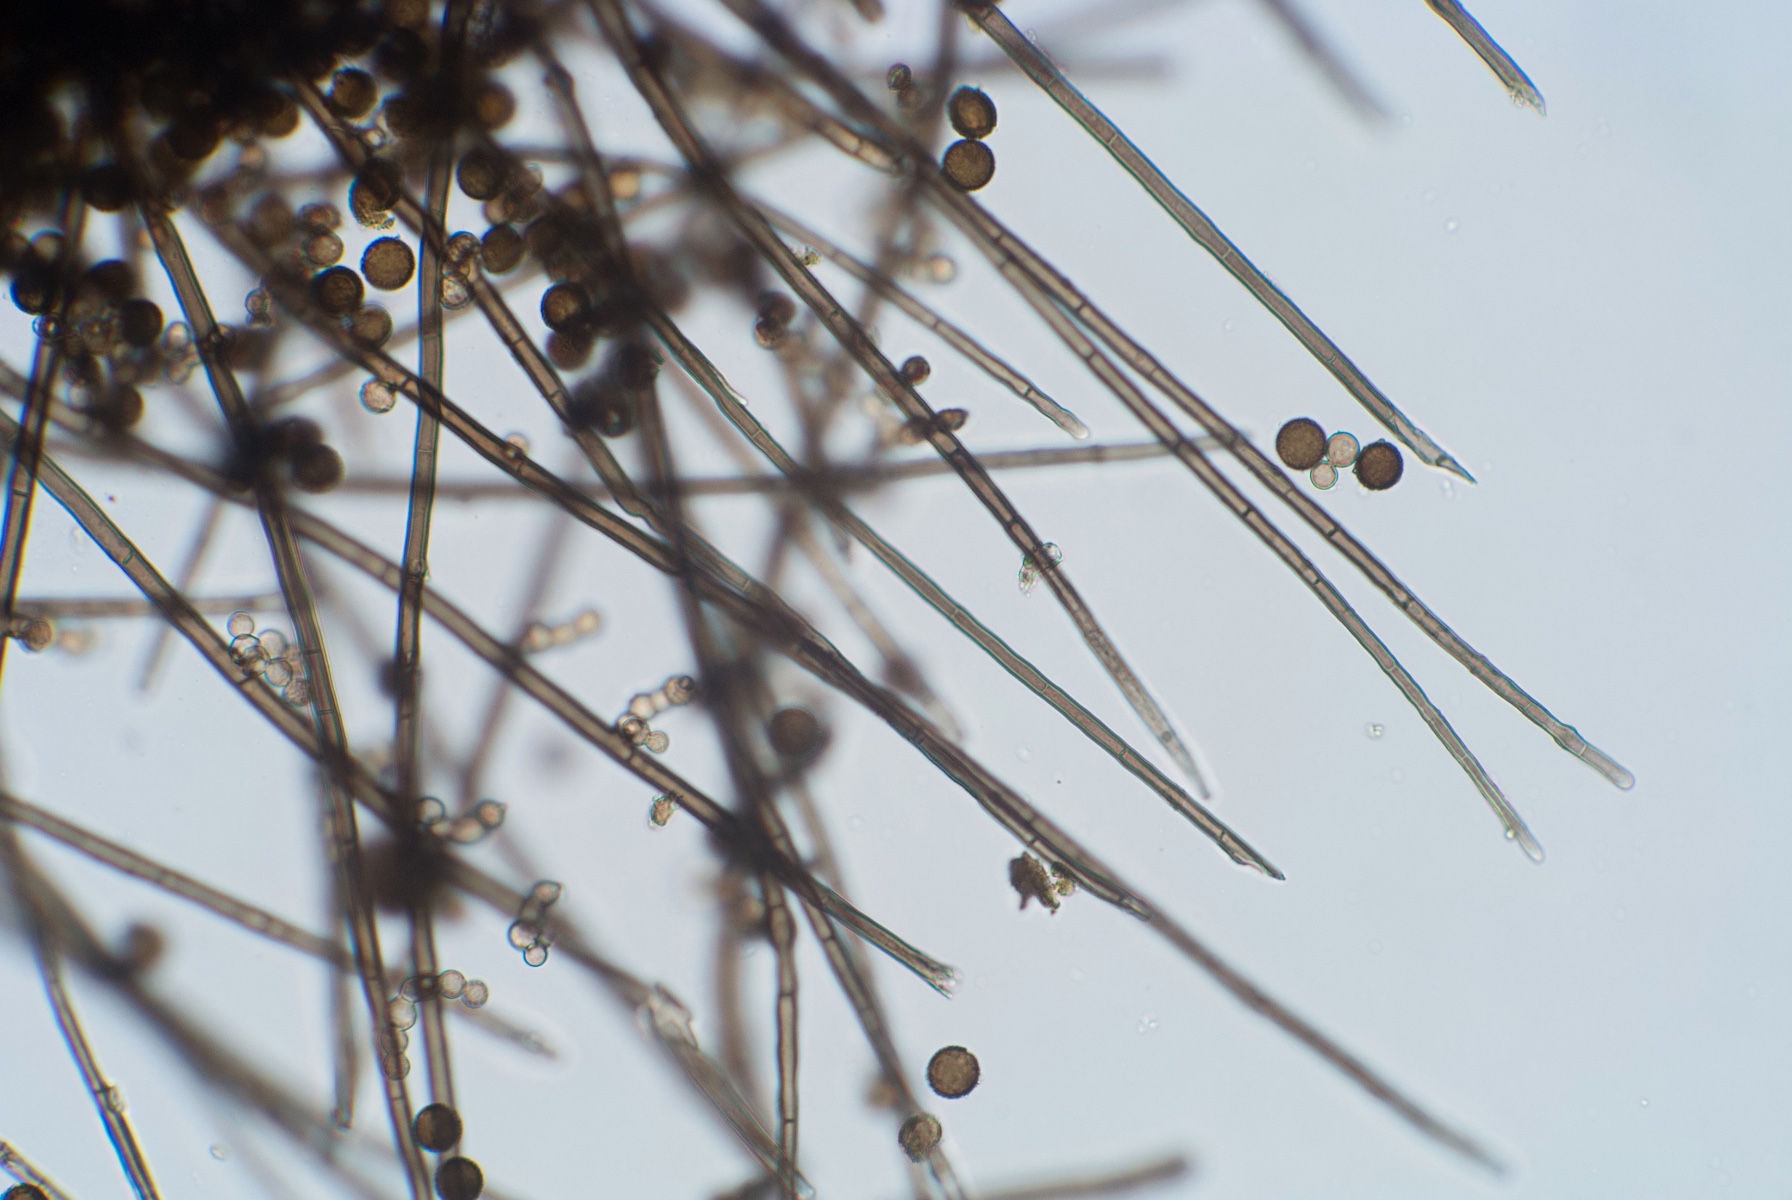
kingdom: Fungi
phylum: Ascomycota
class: Dothideomycetes
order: Pleosporales
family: Periconiaceae
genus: Periconia
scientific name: Periconia hispidula
